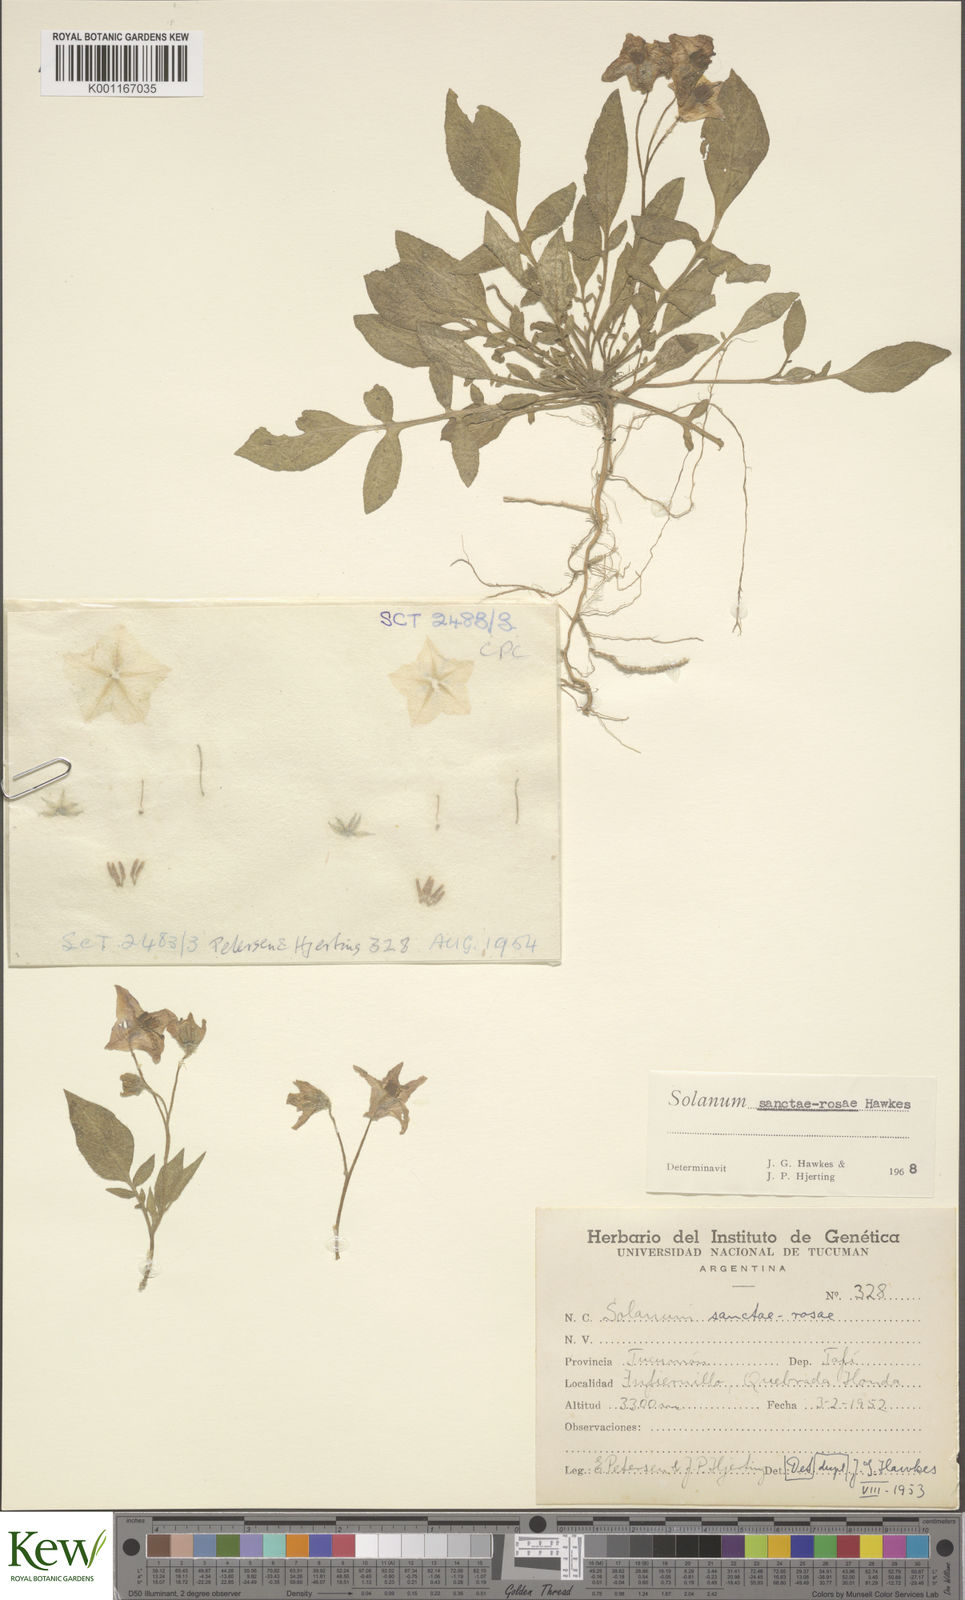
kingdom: Plantae
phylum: Tracheophyta
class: Magnoliopsida
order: Solanales
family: Solanaceae
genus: Solanum
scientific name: Solanum boliviense
